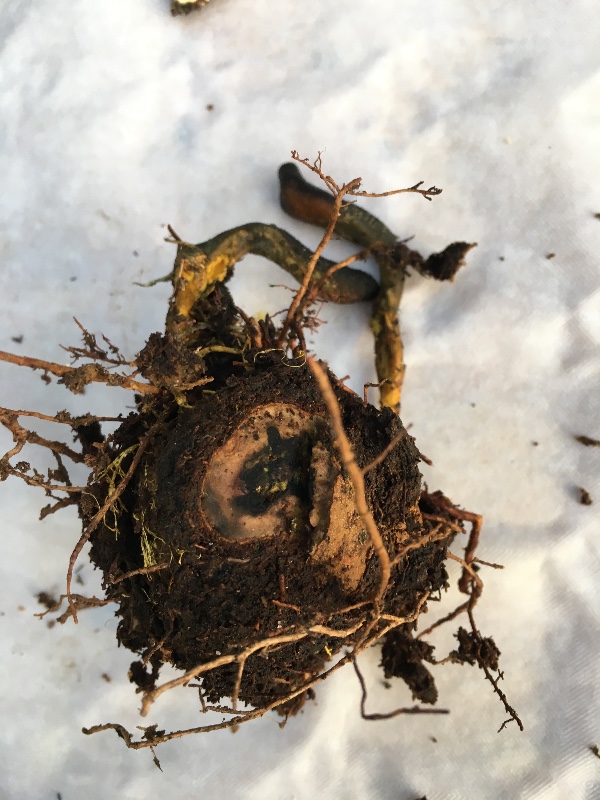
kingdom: Fungi
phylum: Ascomycota
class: Sordariomycetes
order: Hypocreales
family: Ophiocordycipitaceae
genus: Tolypocladium
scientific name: Tolypocladium ophioglossoides
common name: slank snyltekølle
